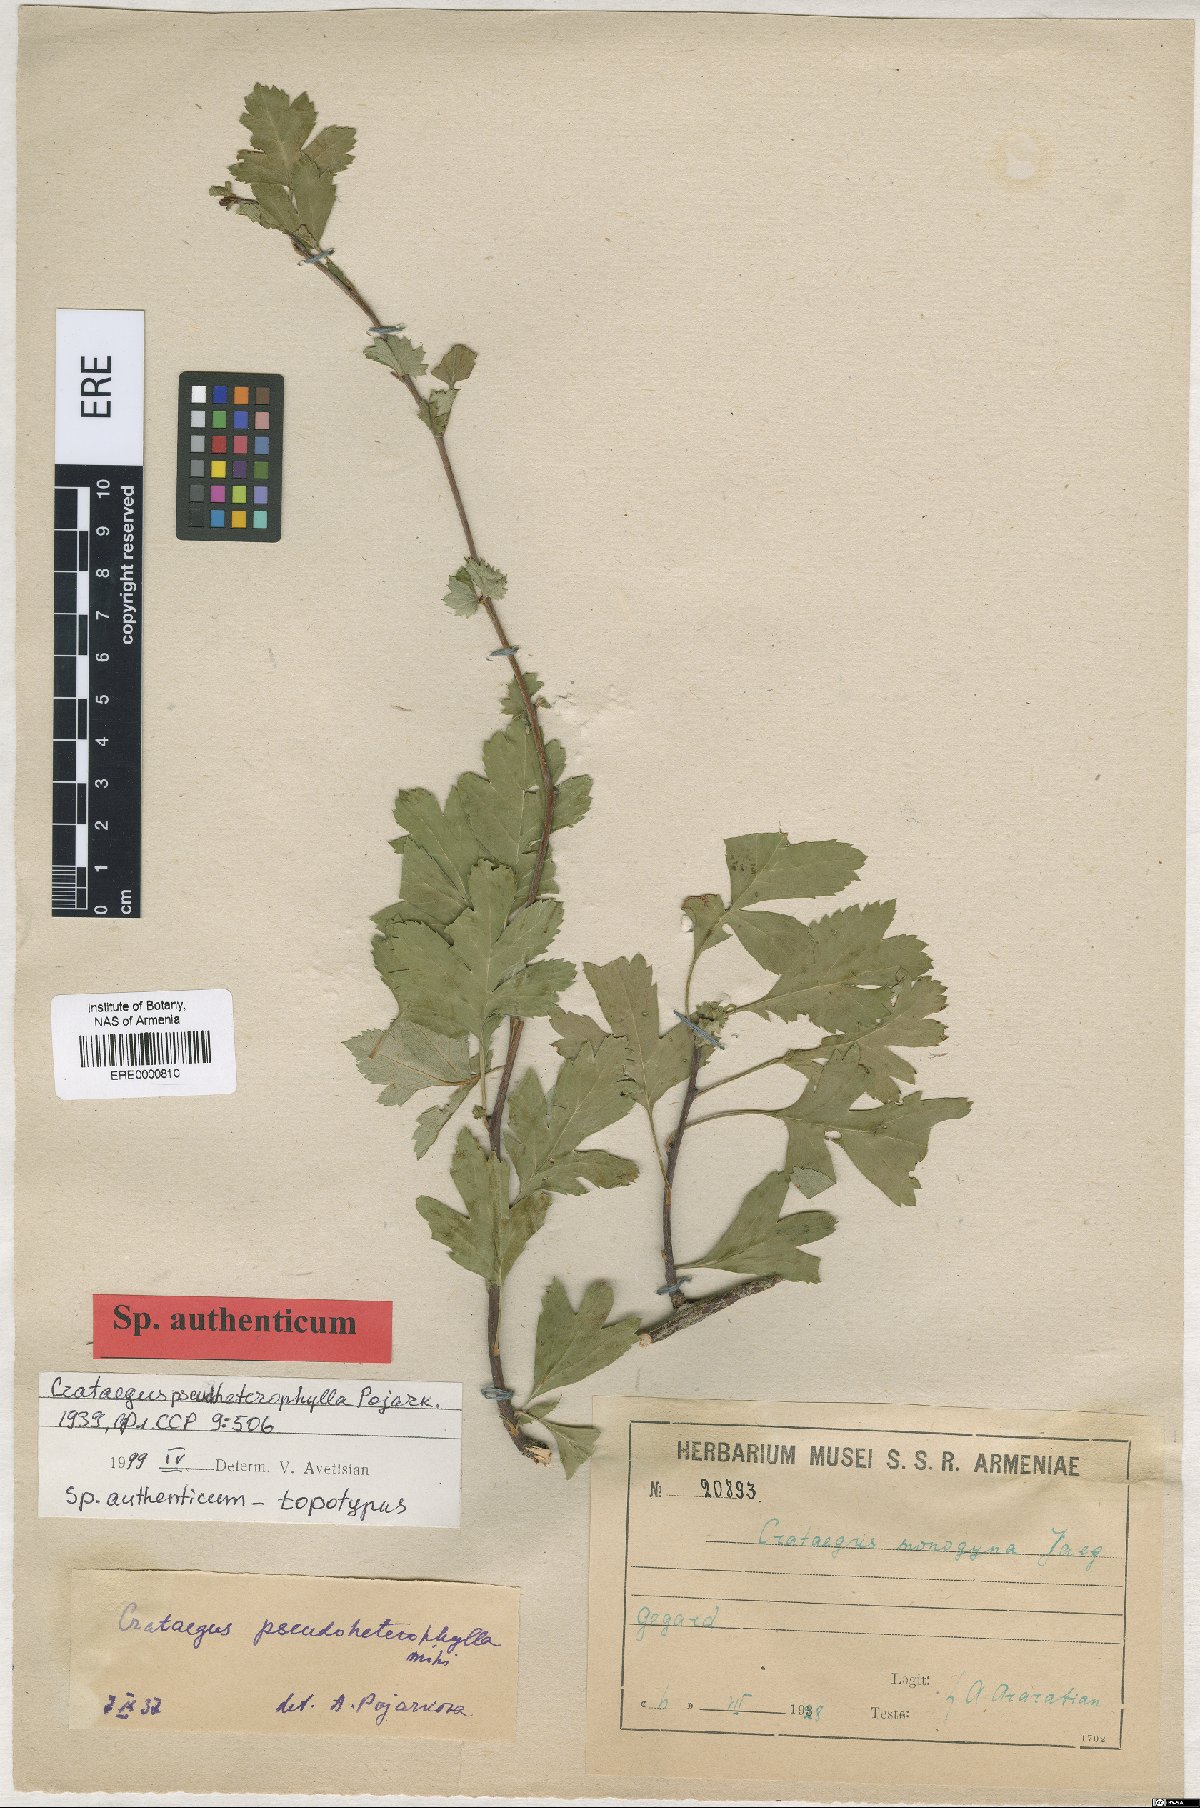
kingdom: Plantae
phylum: Tracheophyta
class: Magnoliopsida
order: Rosales
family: Rosaceae
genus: Crataegus
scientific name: Crataegus pseudoheterophylla
